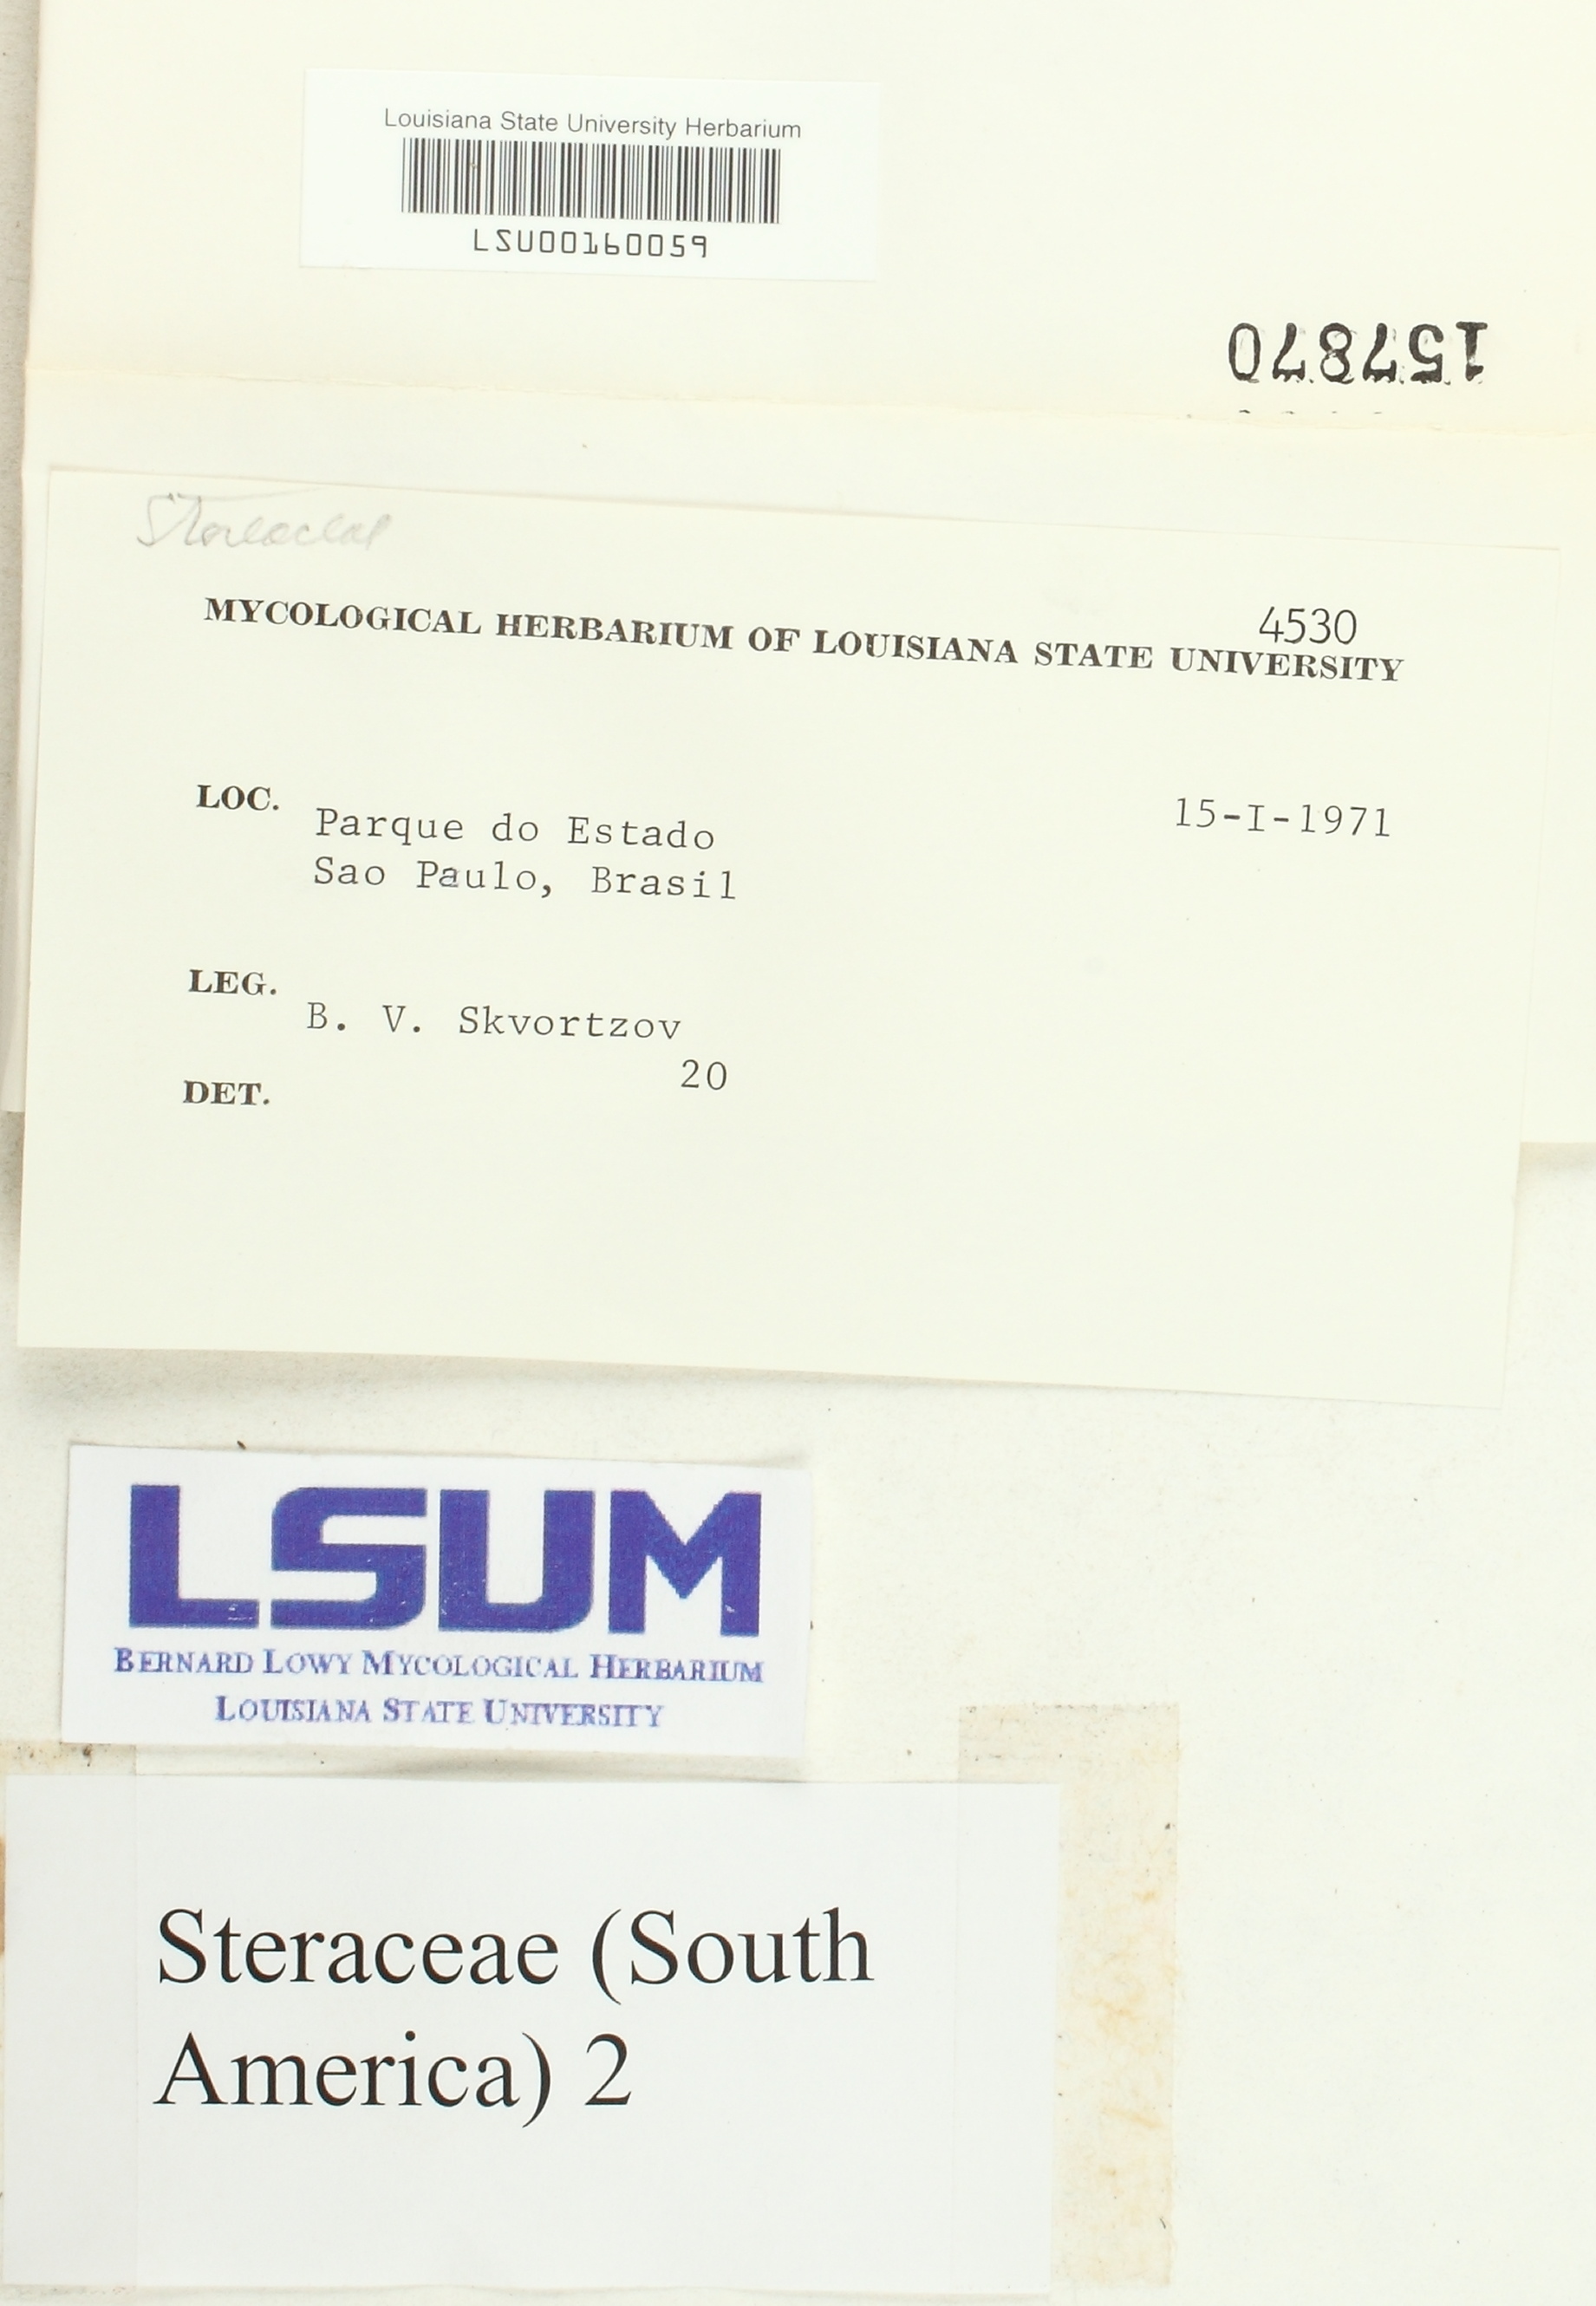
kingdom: Fungi
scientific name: Fungi
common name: Fungi
